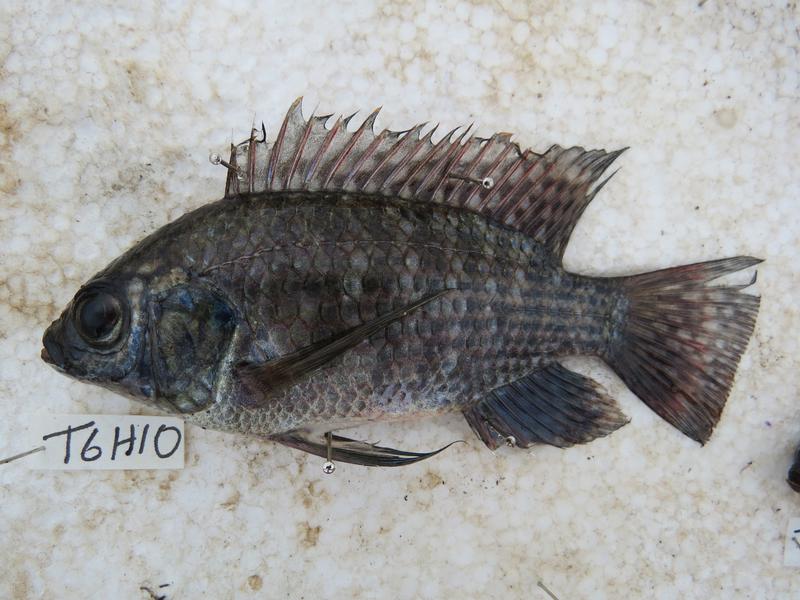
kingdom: Animalia
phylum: Chordata
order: Perciformes
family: Cichlidae
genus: Oreochromis
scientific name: Oreochromis leucostictus
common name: Blue spotted tilapia
